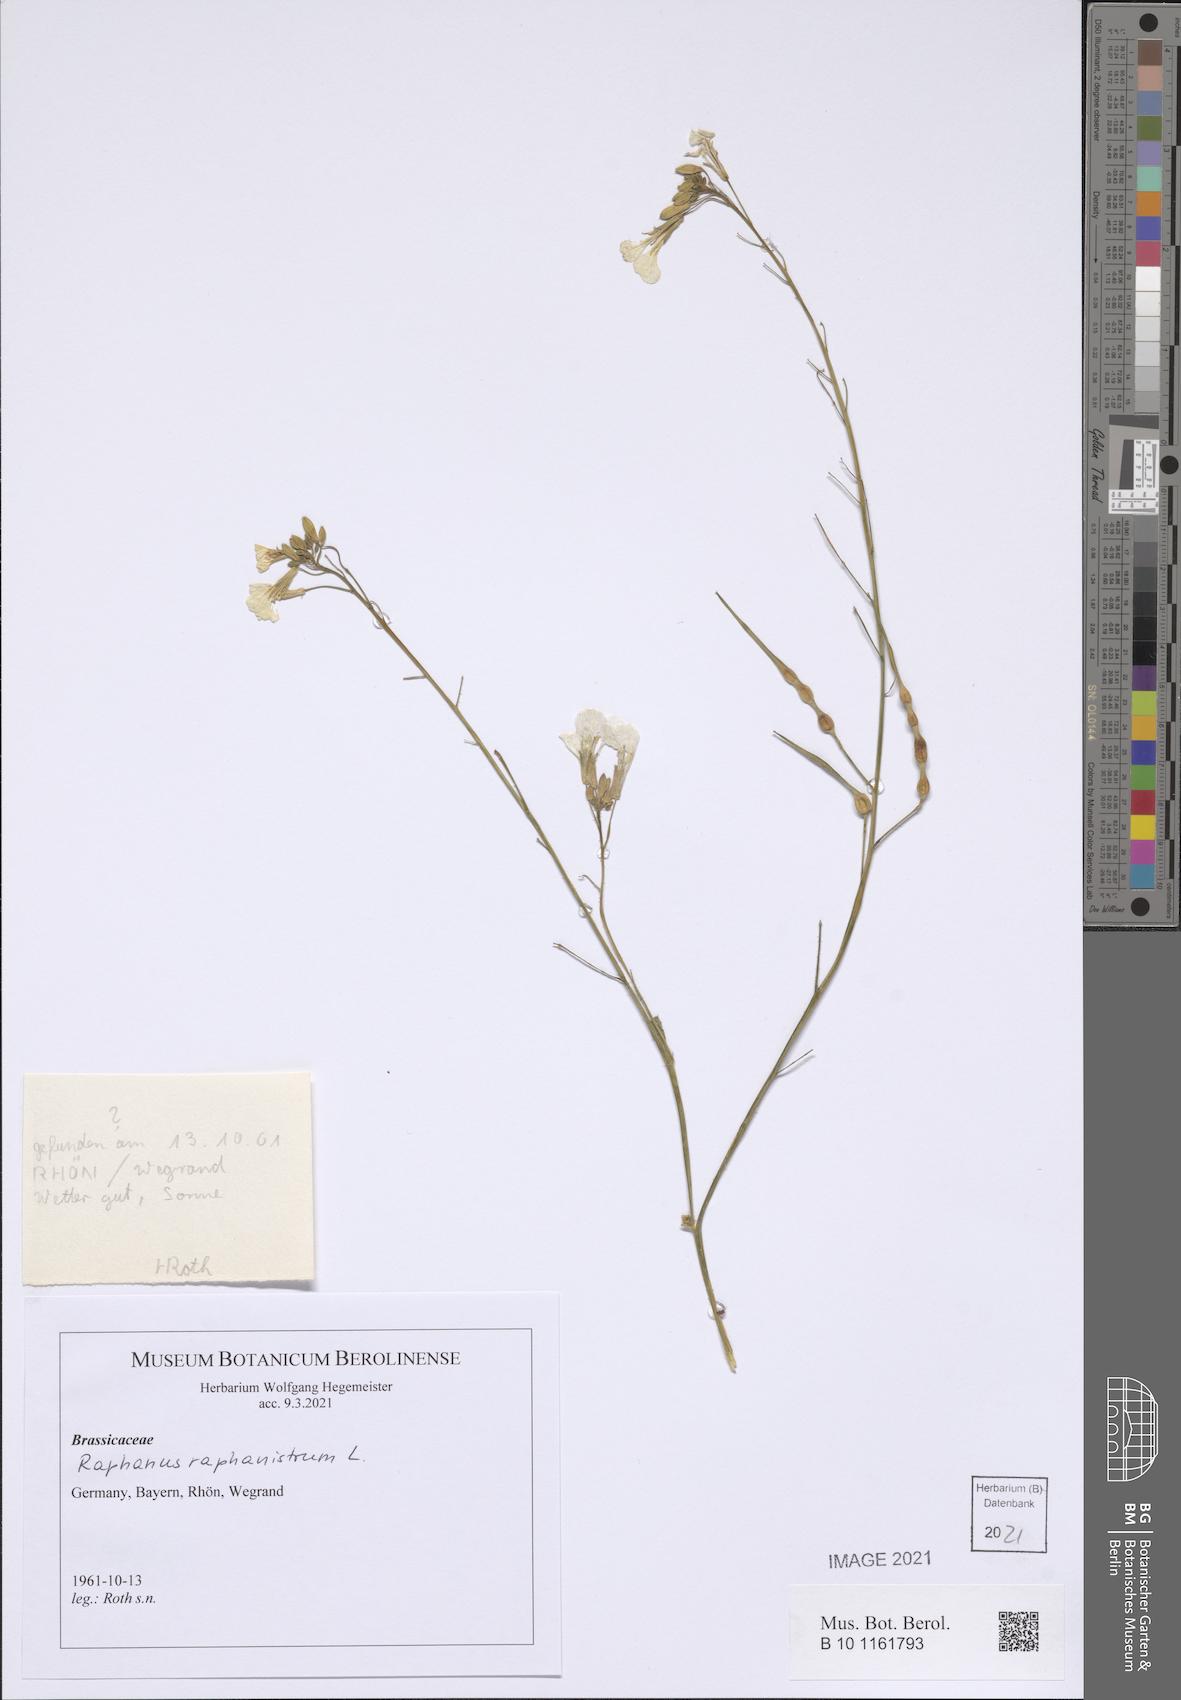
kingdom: Plantae
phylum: Tracheophyta
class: Magnoliopsida
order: Brassicales
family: Brassicaceae
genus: Raphanus
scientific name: Raphanus raphanistrum
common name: Wild radish
